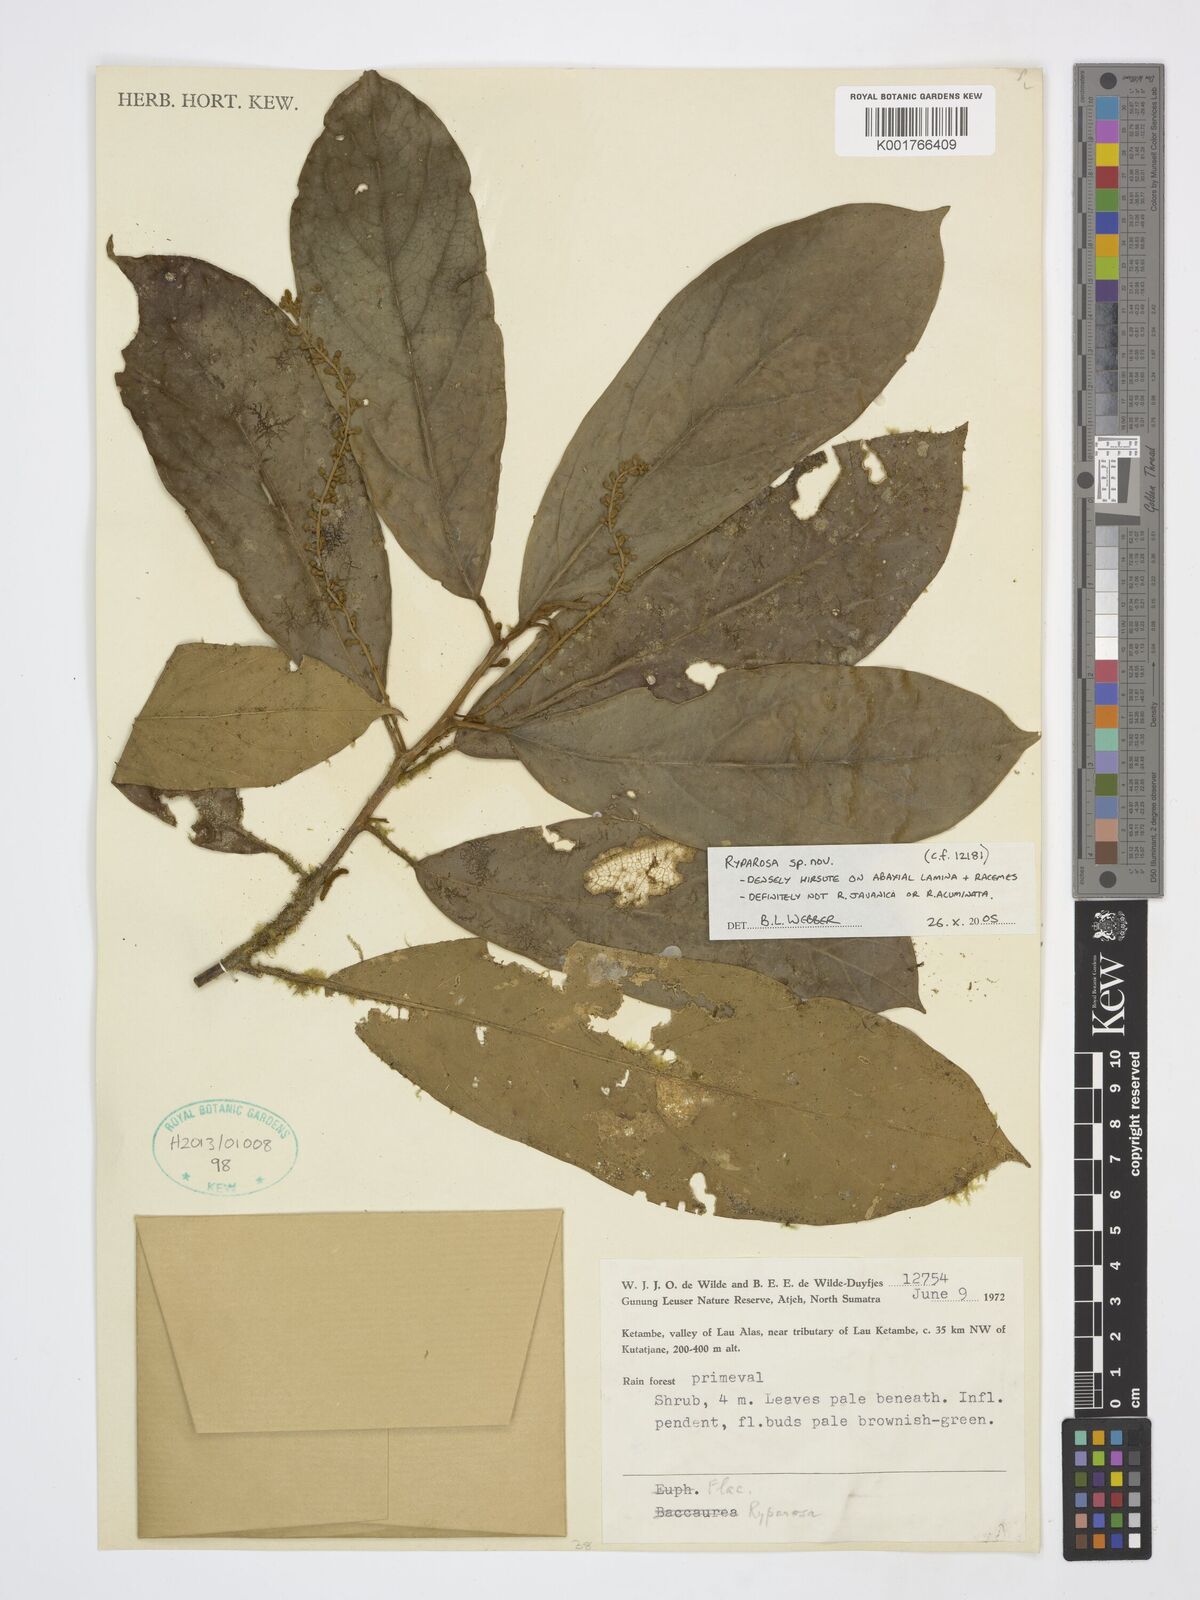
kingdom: Plantae
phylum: Tracheophyta
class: Magnoliopsida
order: Malpighiales
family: Achariaceae
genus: Ryparosa
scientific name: Ryparosa
